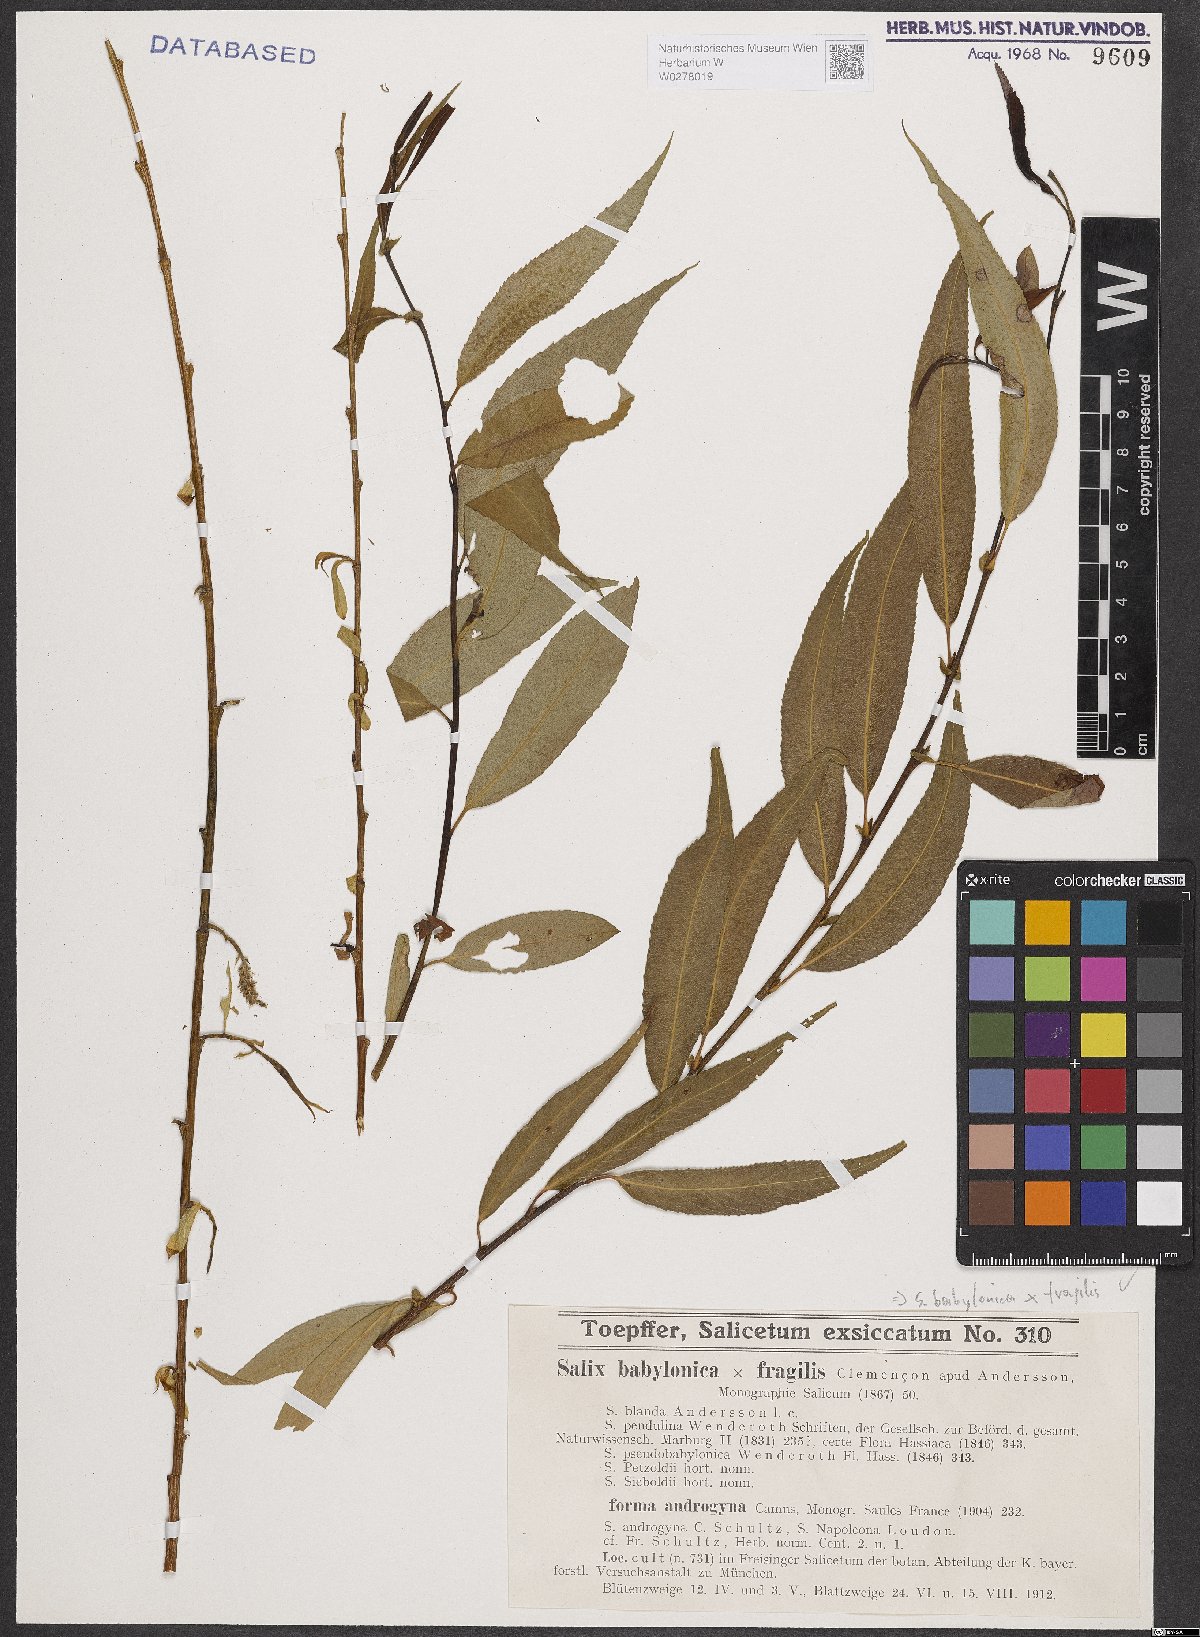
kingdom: Plantae
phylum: Tracheophyta
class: Magnoliopsida
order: Malpighiales
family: Salicaceae
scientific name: Salicaceae
